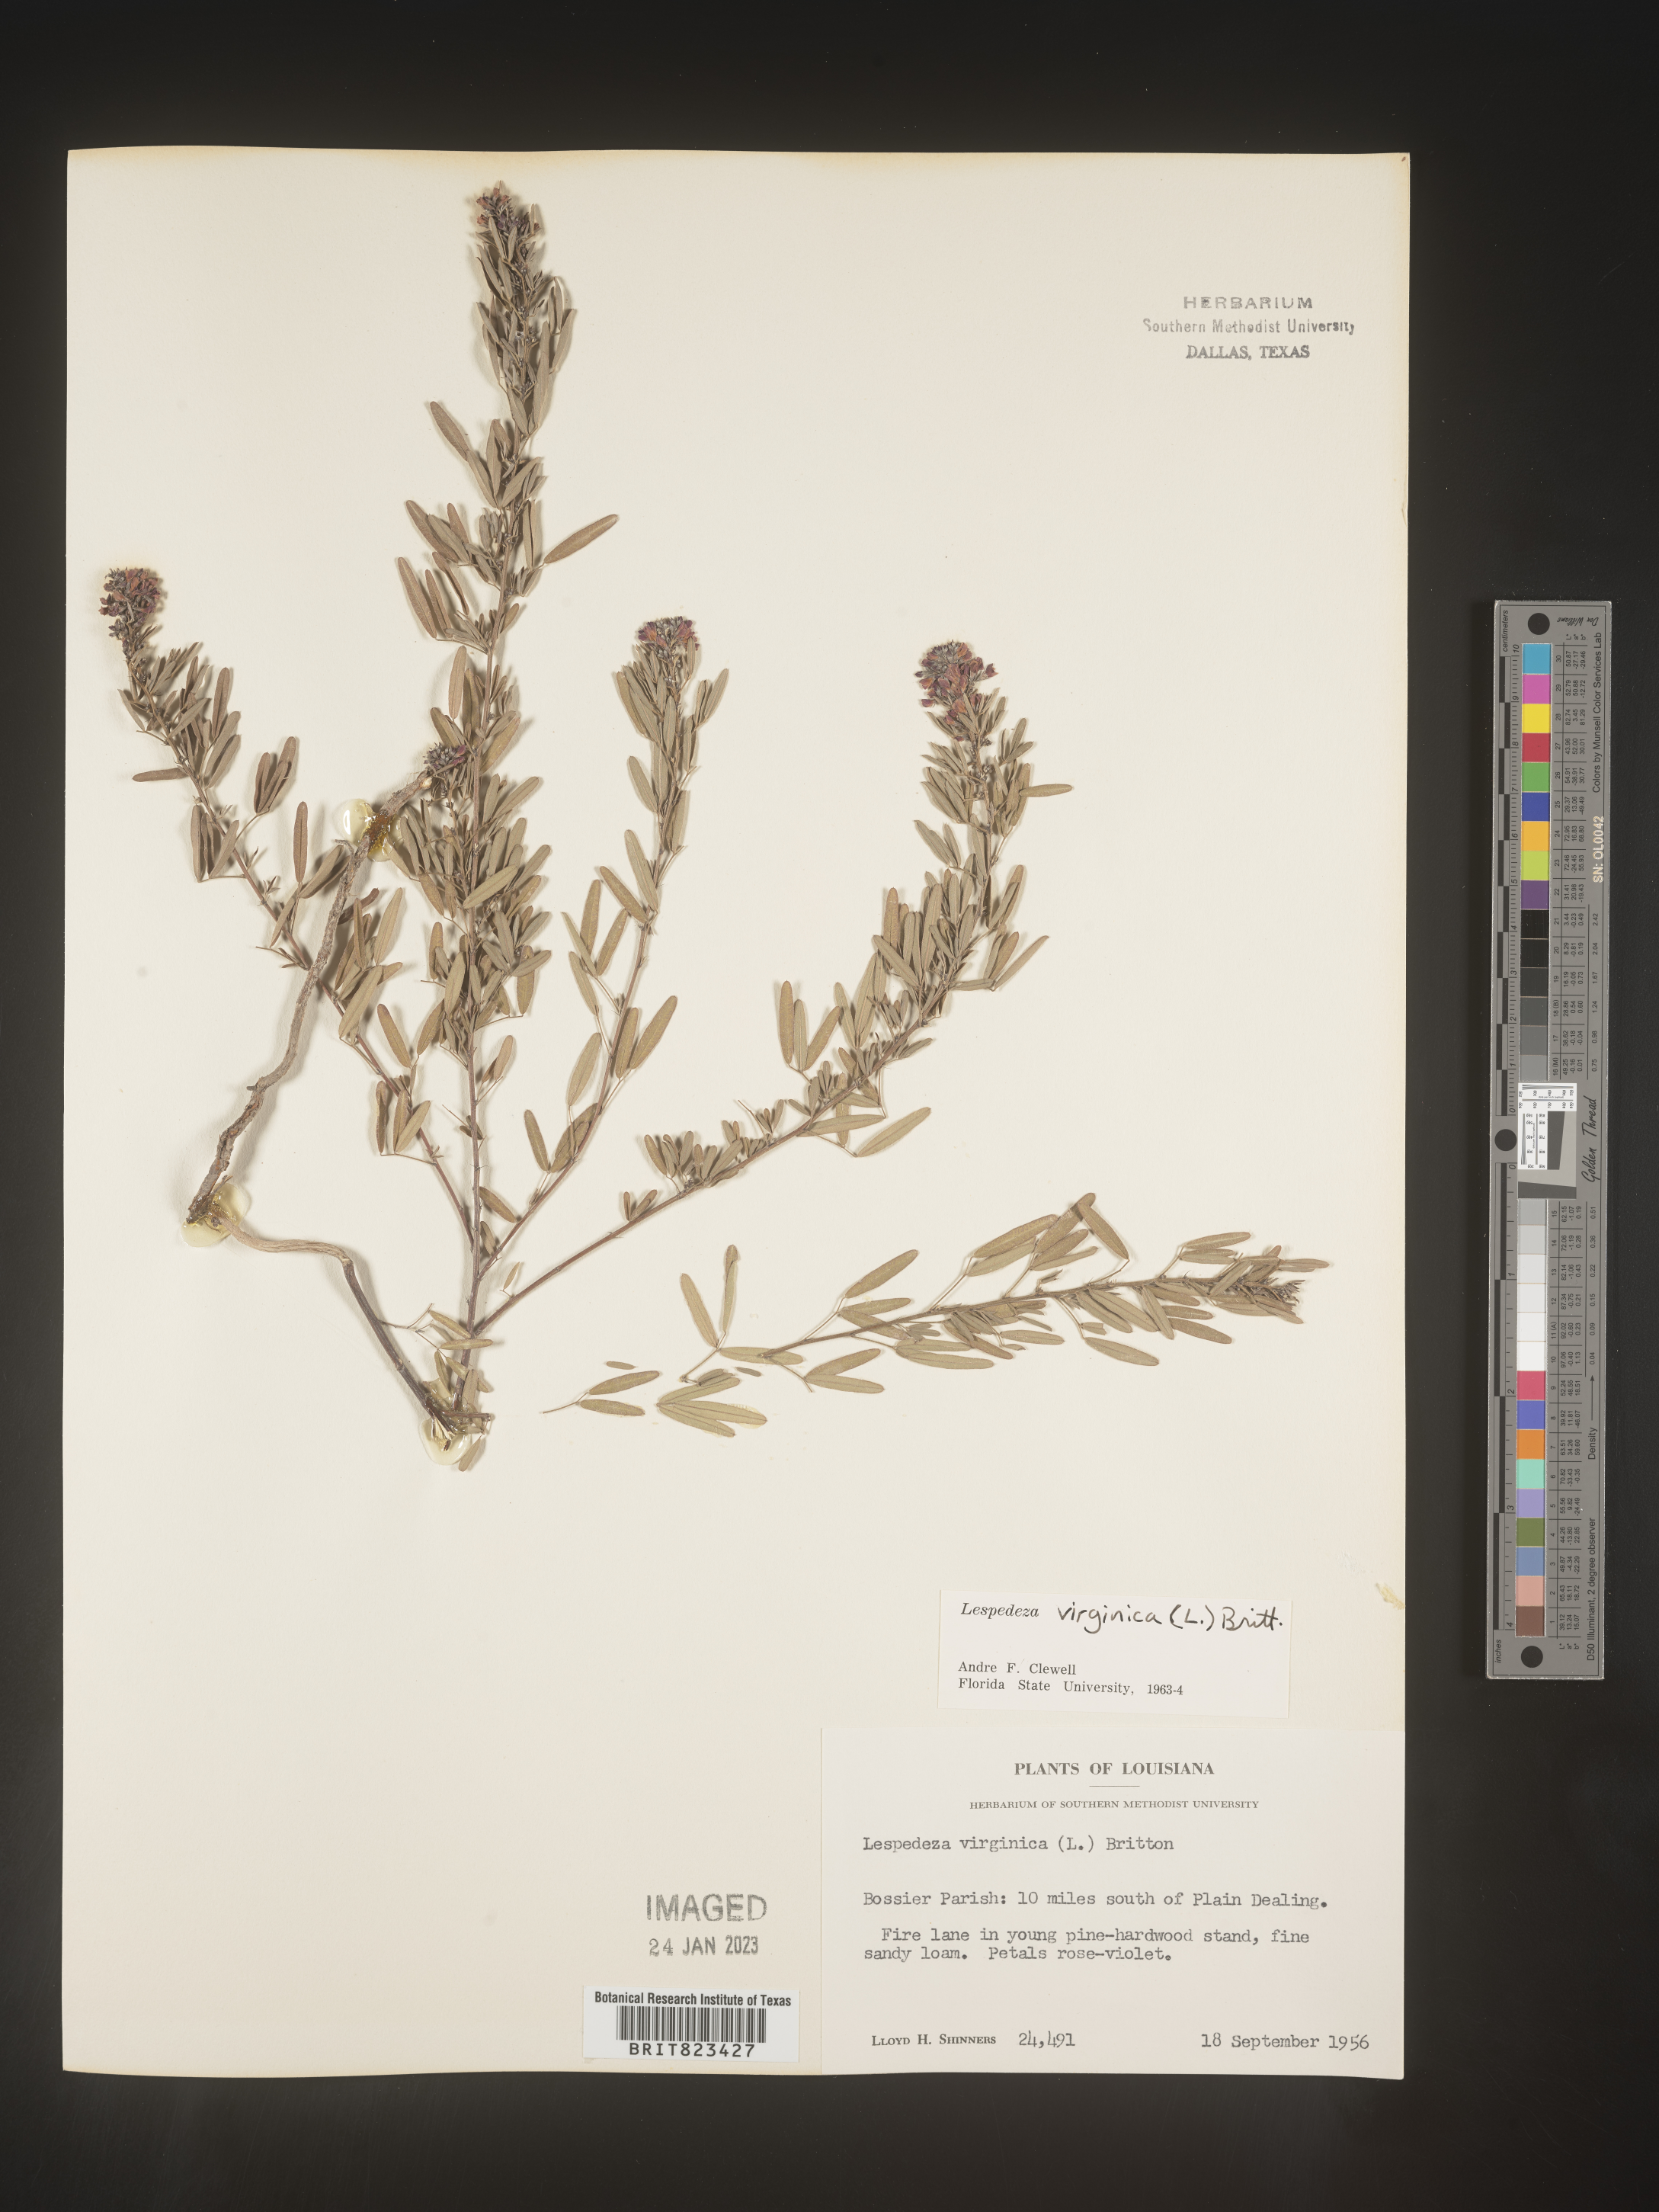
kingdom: Plantae
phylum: Tracheophyta
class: Magnoliopsida
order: Fabales
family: Fabaceae
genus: Lespedeza
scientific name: Lespedeza virginica
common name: Slender bush-clover
